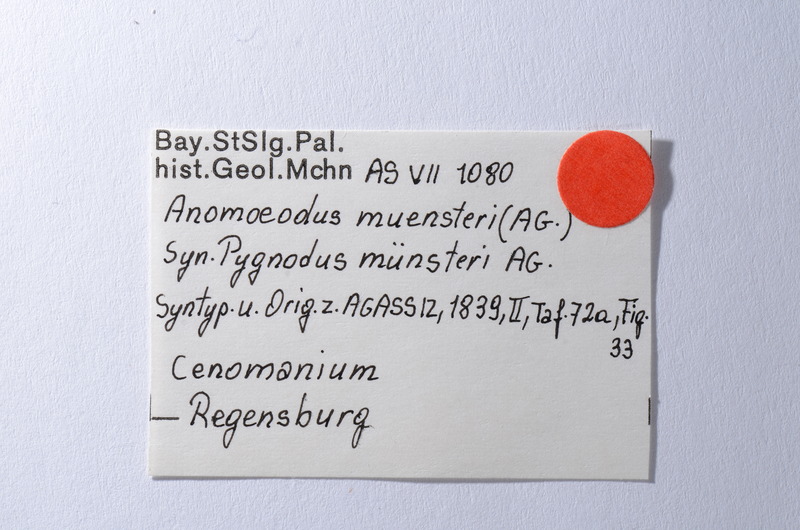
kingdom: Animalia
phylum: Chordata
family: Pycnodontidae
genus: Anomoeodus
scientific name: Anomoeodus
